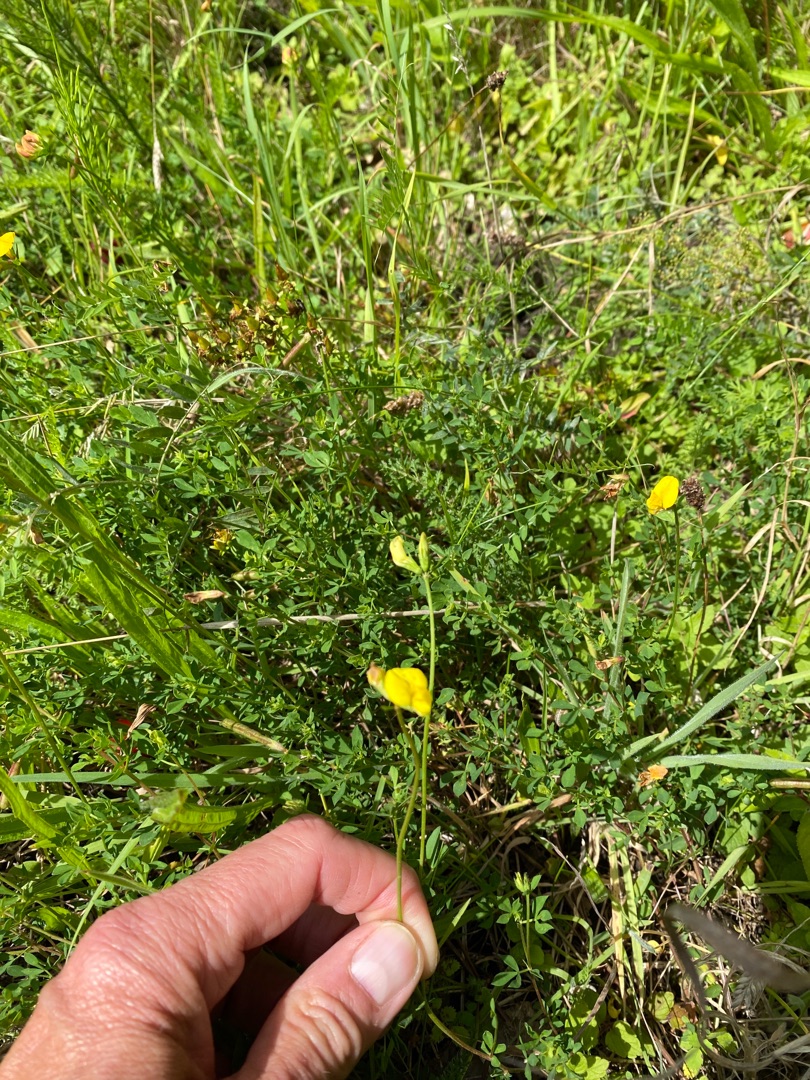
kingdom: Plantae
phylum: Tracheophyta
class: Magnoliopsida
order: Fabales
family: Fabaceae
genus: Lotus
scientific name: Lotus corniculatus
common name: Almindelig kællingetand
